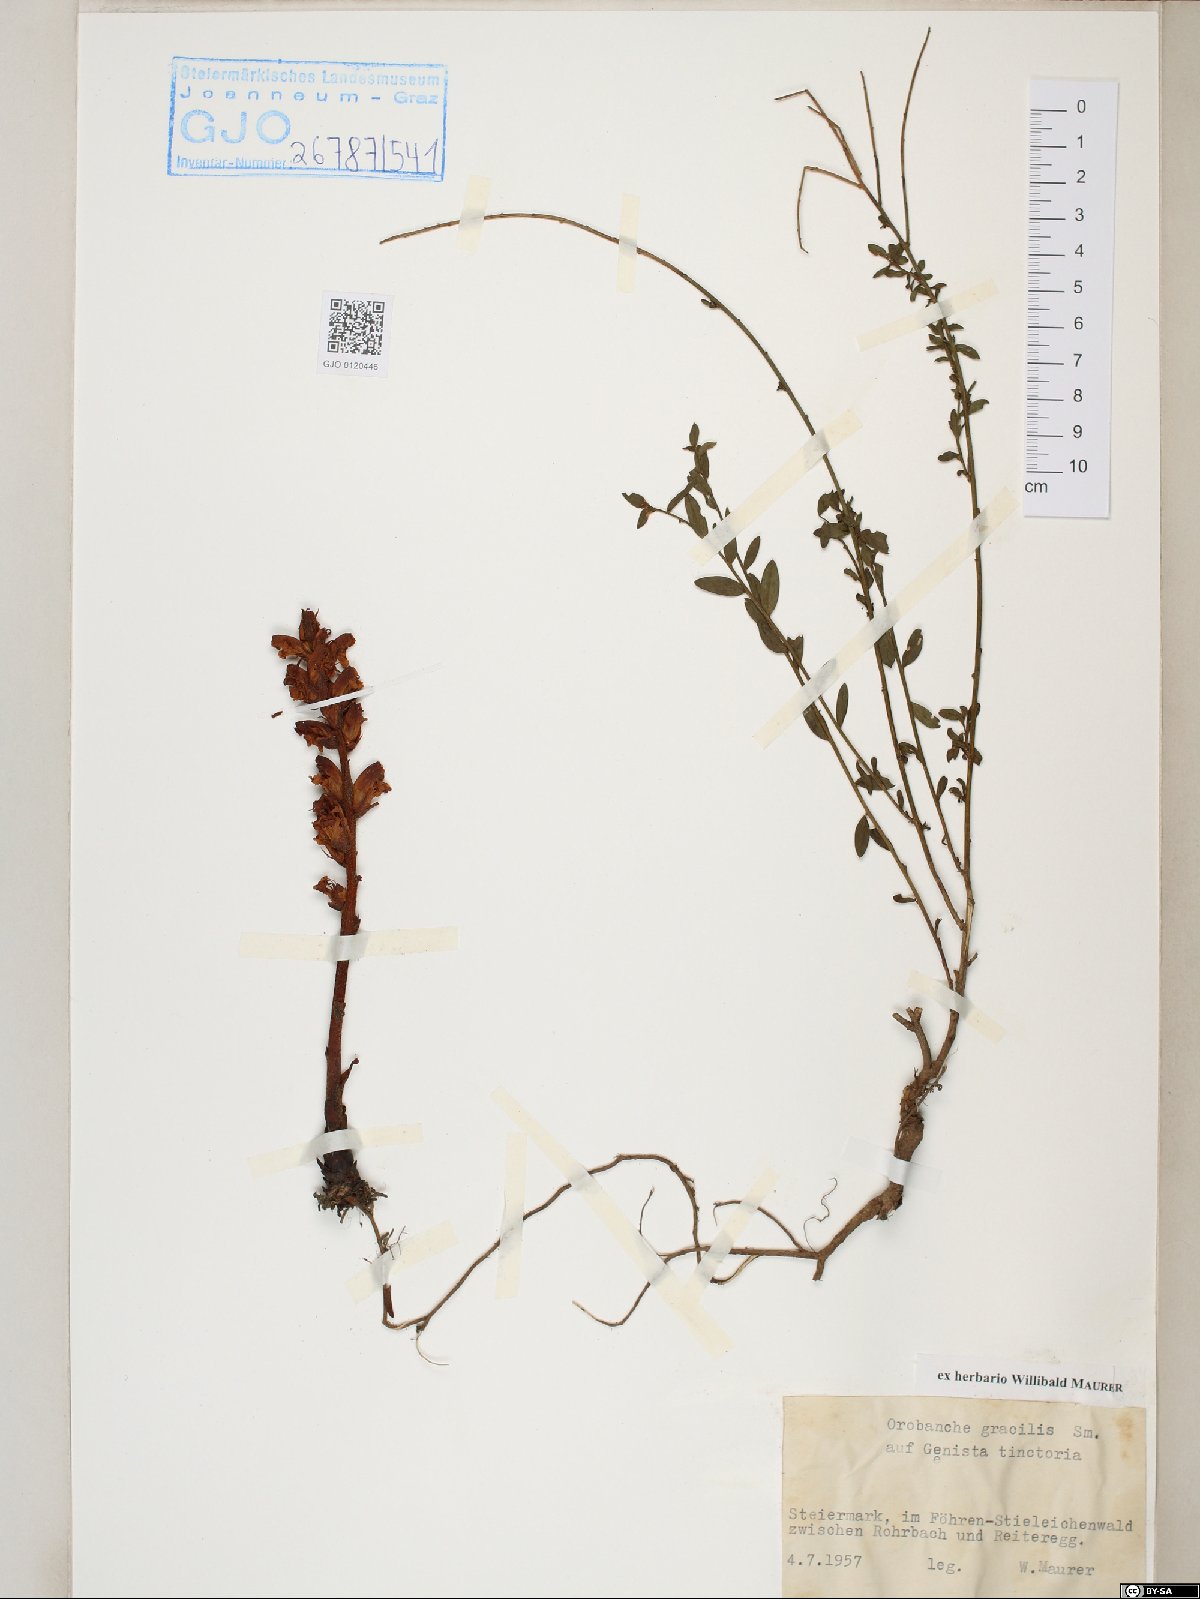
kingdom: Plantae
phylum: Tracheophyta
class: Magnoliopsida
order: Lamiales
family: Orobanchaceae
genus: Orobanche
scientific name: Orobanche gracilis
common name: Slender broomrape
